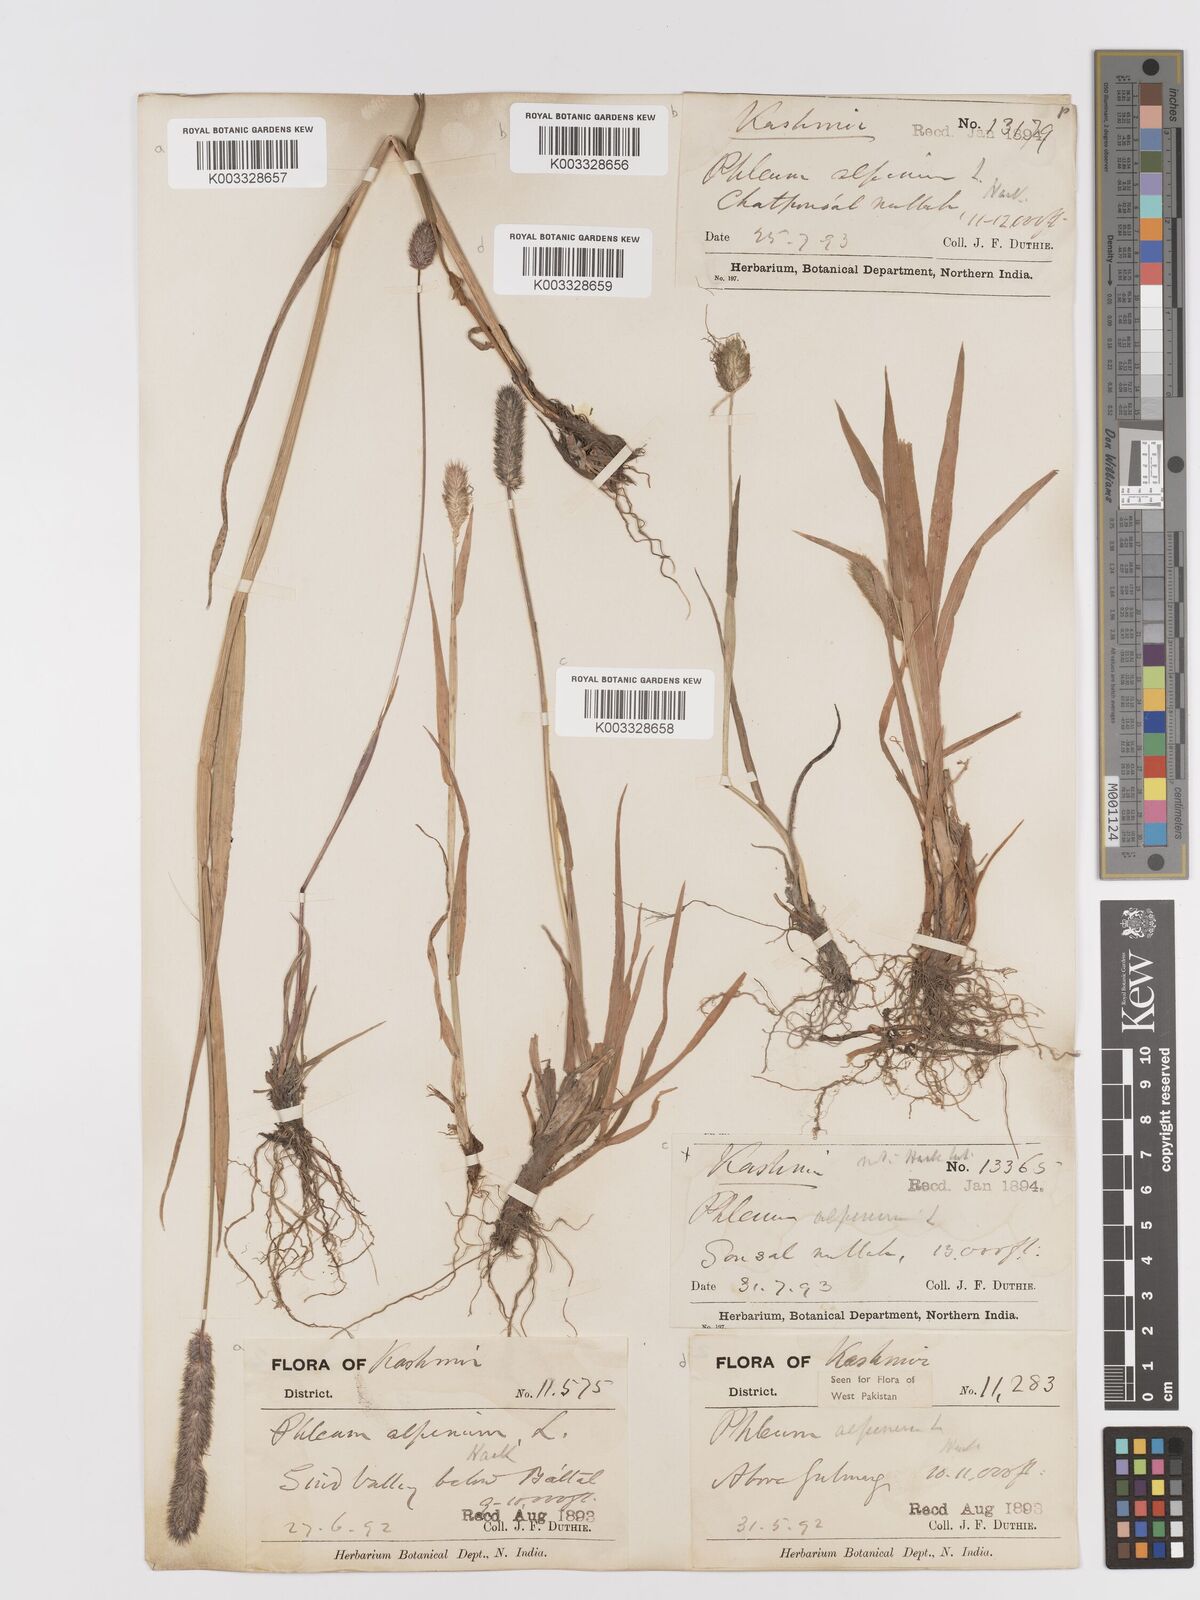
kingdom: Plantae
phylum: Tracheophyta
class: Liliopsida
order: Poales
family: Poaceae
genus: Phleum
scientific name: Phleum alpinum
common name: Alpine cat's-tail
